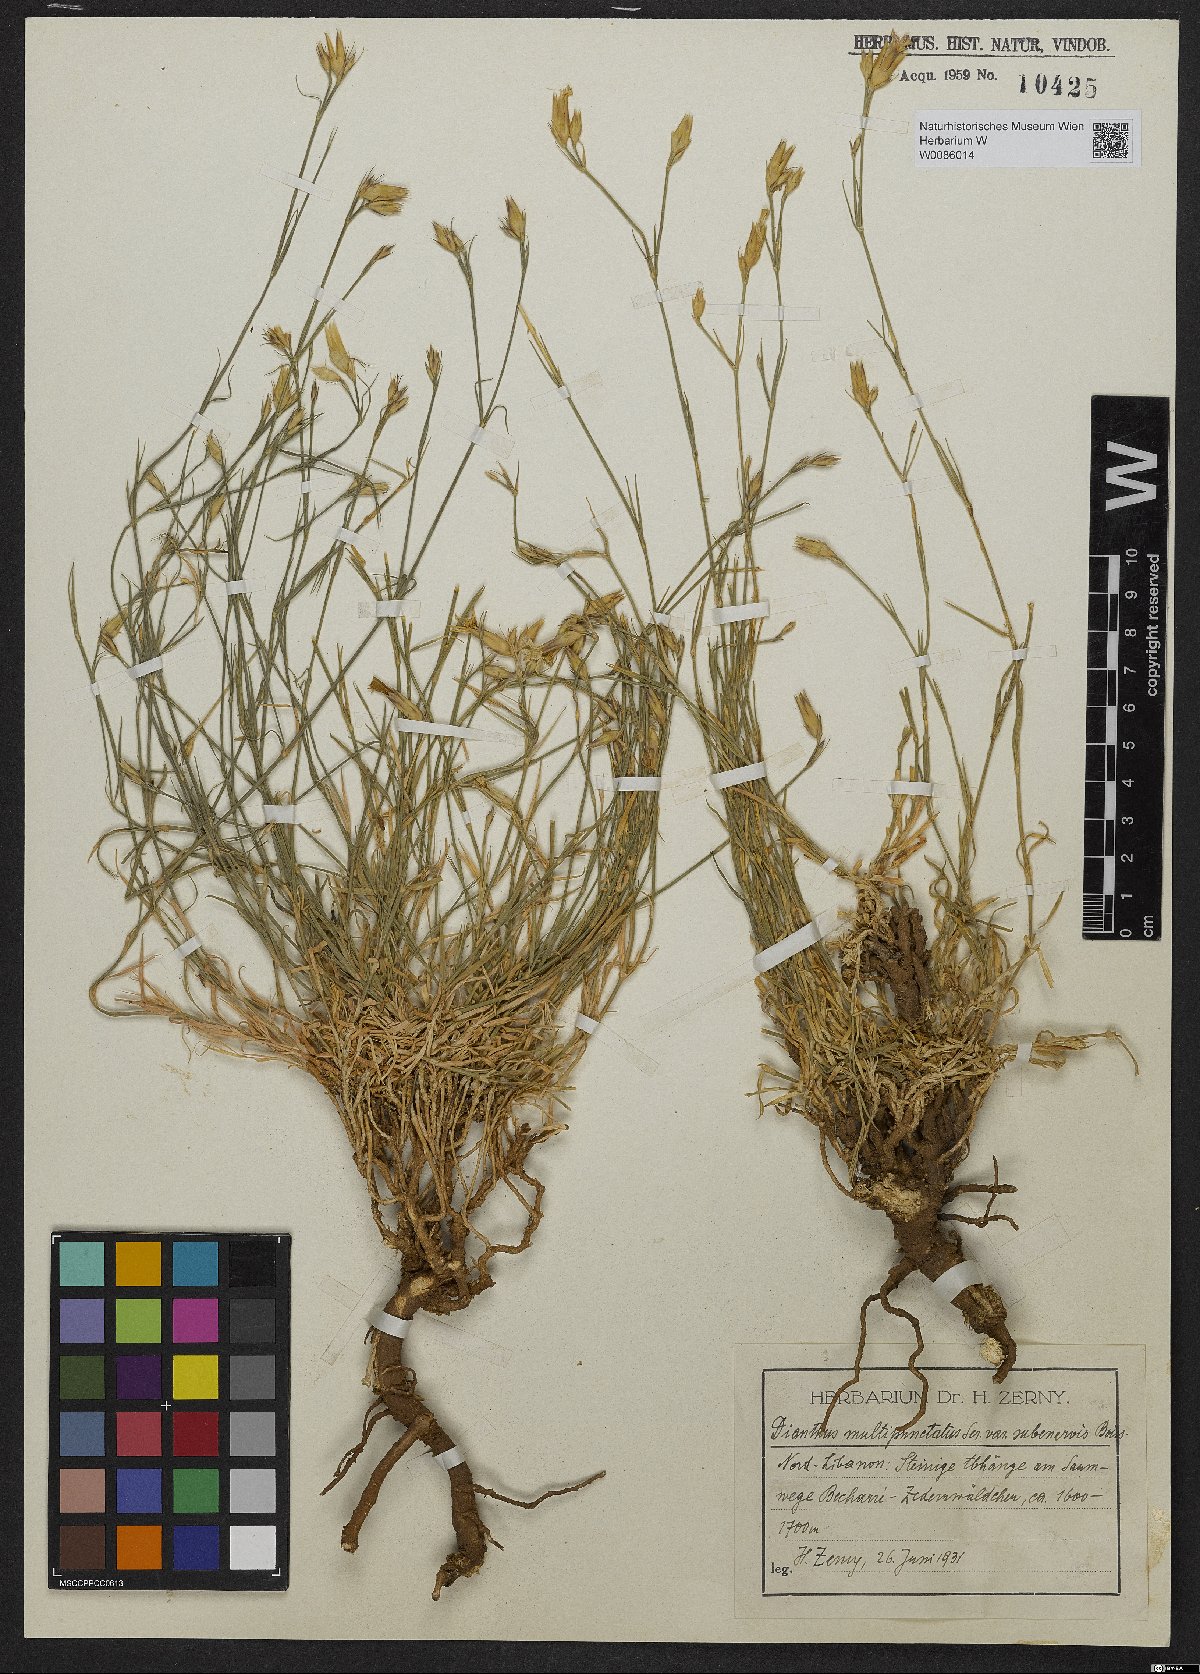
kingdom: Plantae
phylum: Tracheophyta
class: Magnoliopsida
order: Caryophyllales
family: Caryophyllaceae
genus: Dianthus
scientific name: Dianthus strictus
